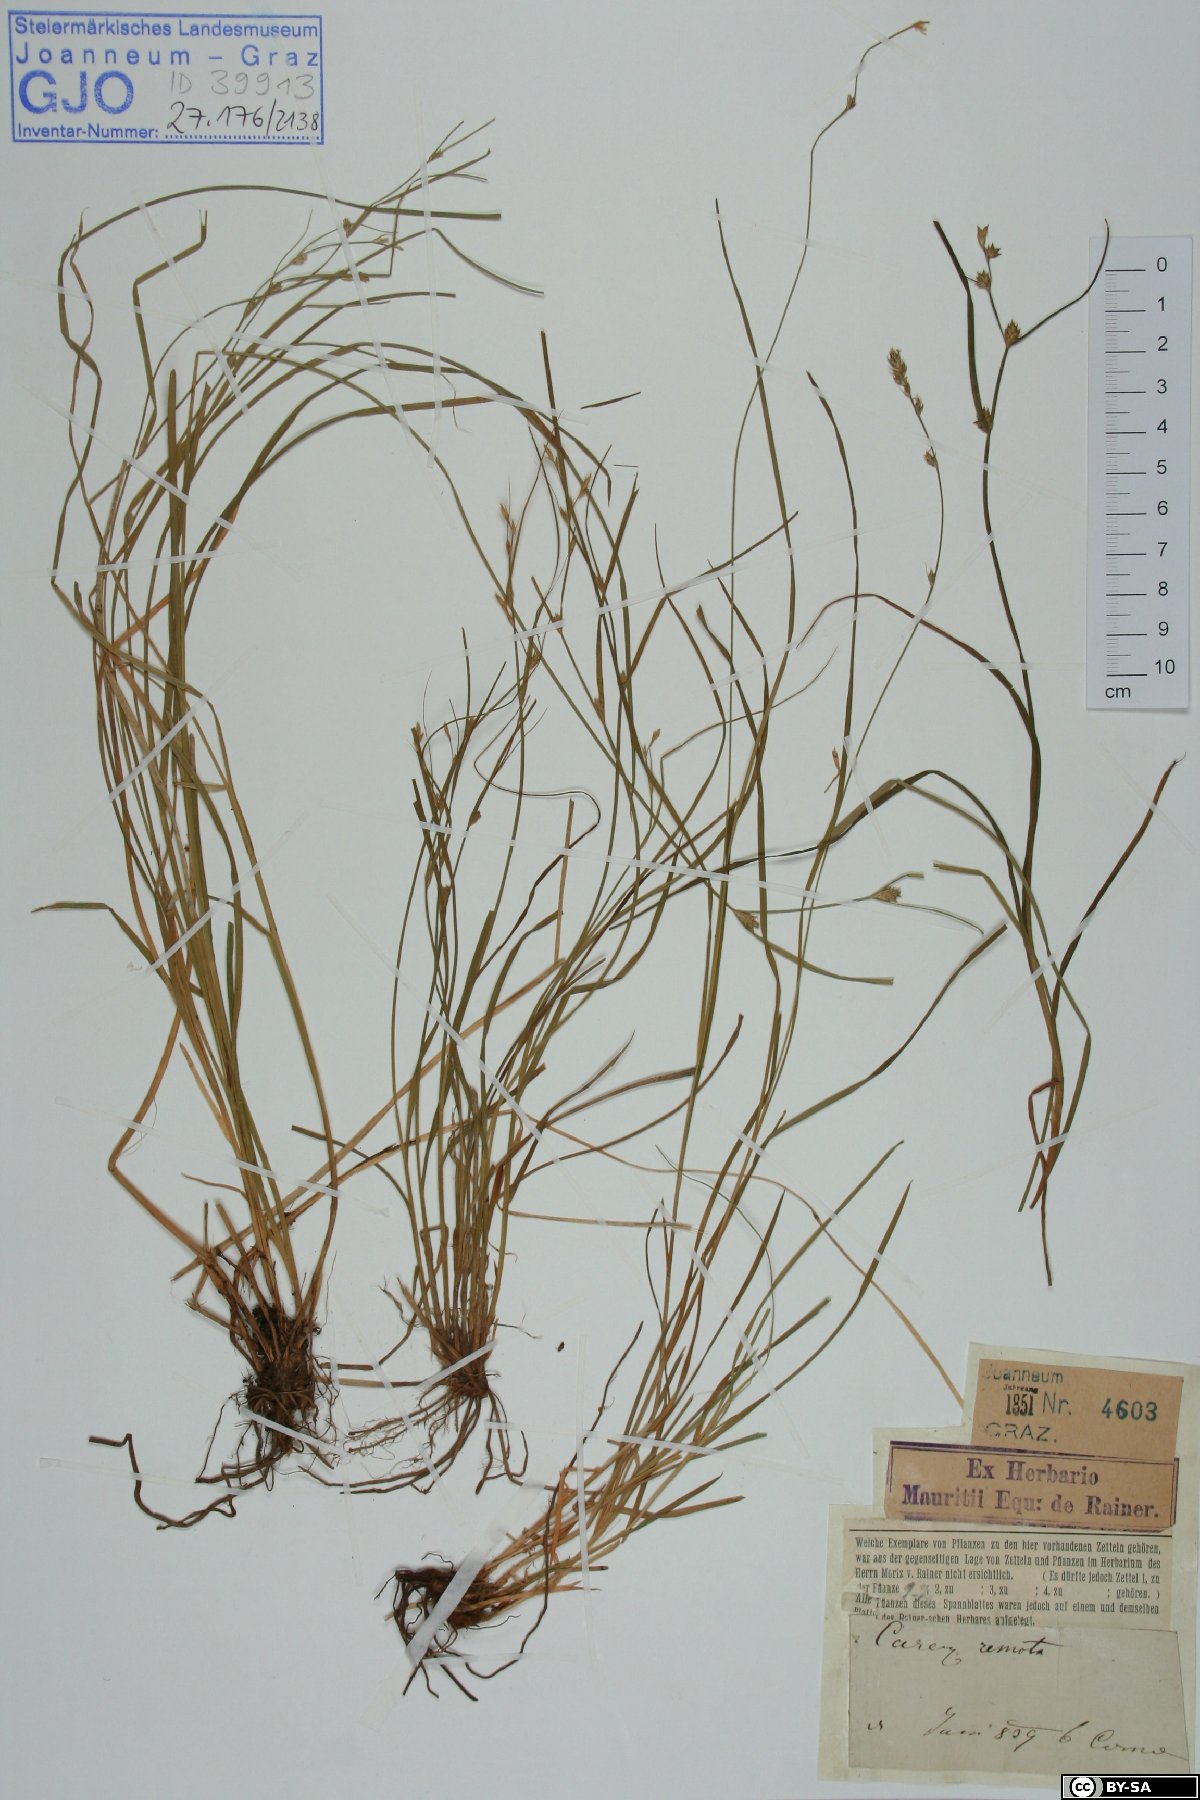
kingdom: Plantae
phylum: Tracheophyta
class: Liliopsida
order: Poales
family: Cyperaceae
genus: Carex
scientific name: Carex remota
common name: Remote sedge
